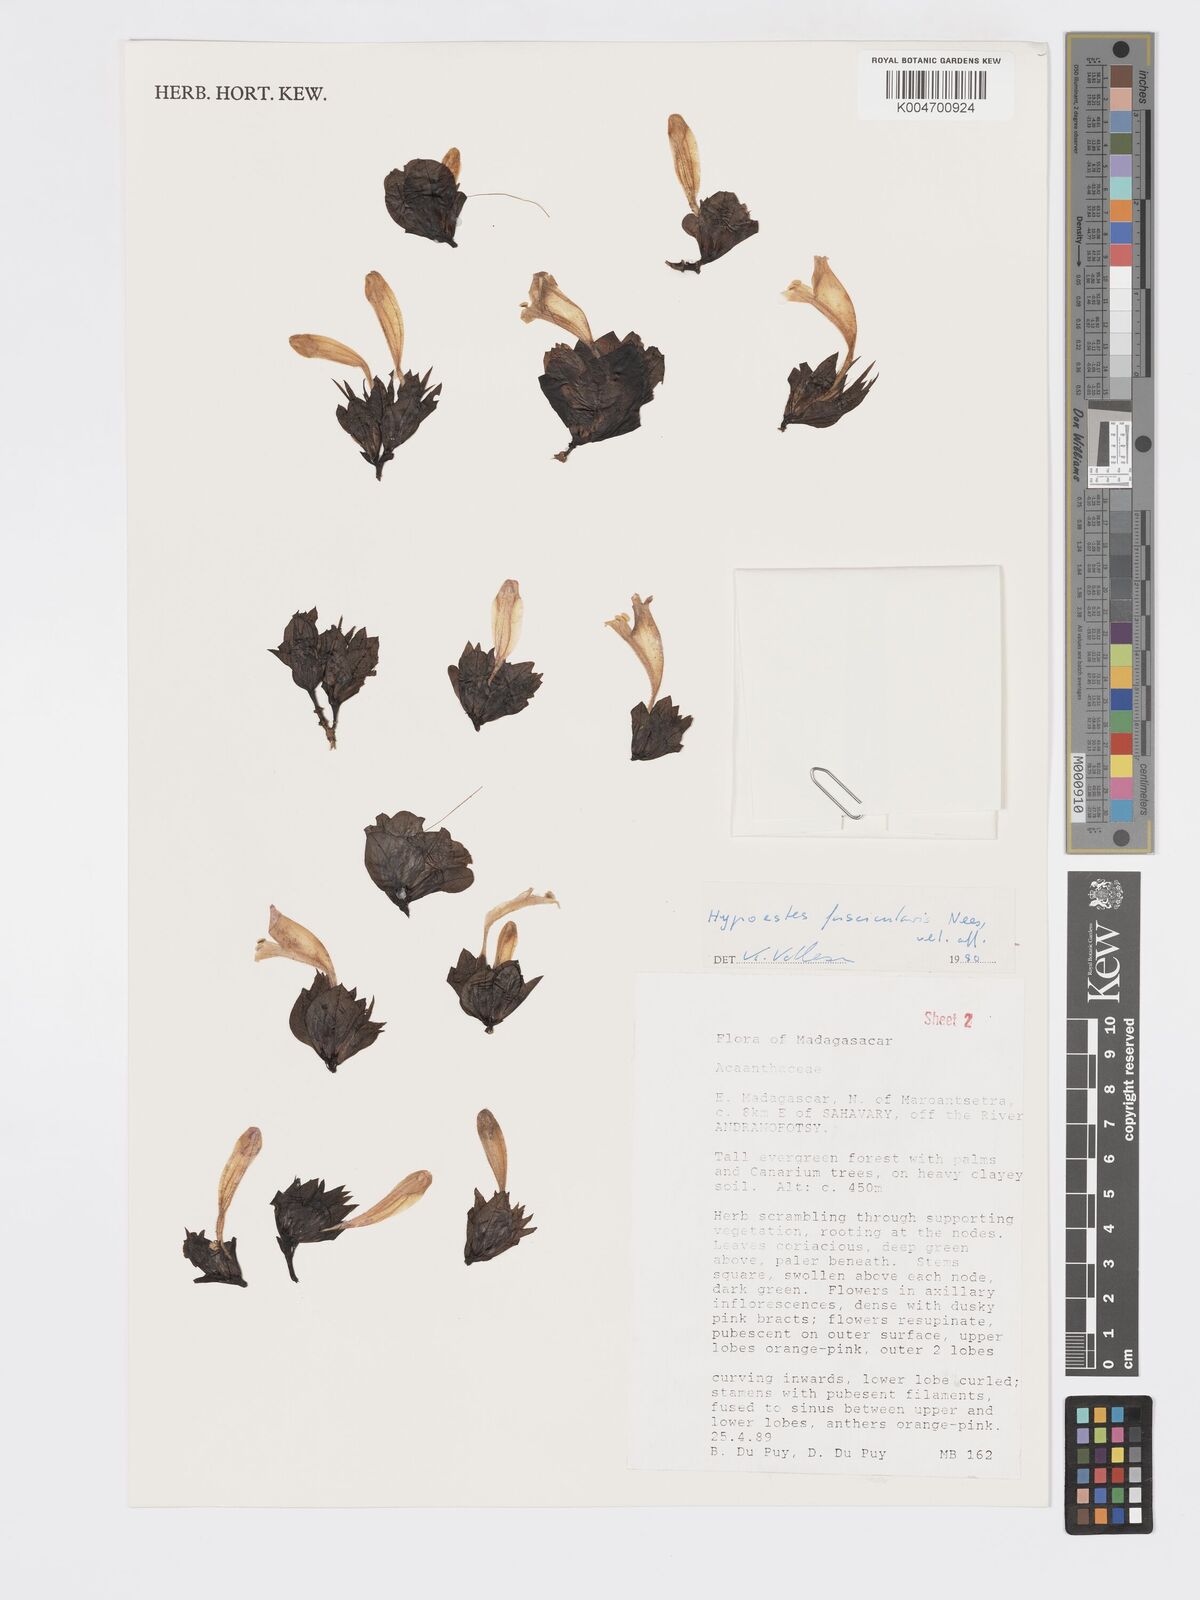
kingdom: Plantae
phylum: Tracheophyta
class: Magnoliopsida
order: Lamiales
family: Acanthaceae
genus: Hypoestes
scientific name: Hypoestes
